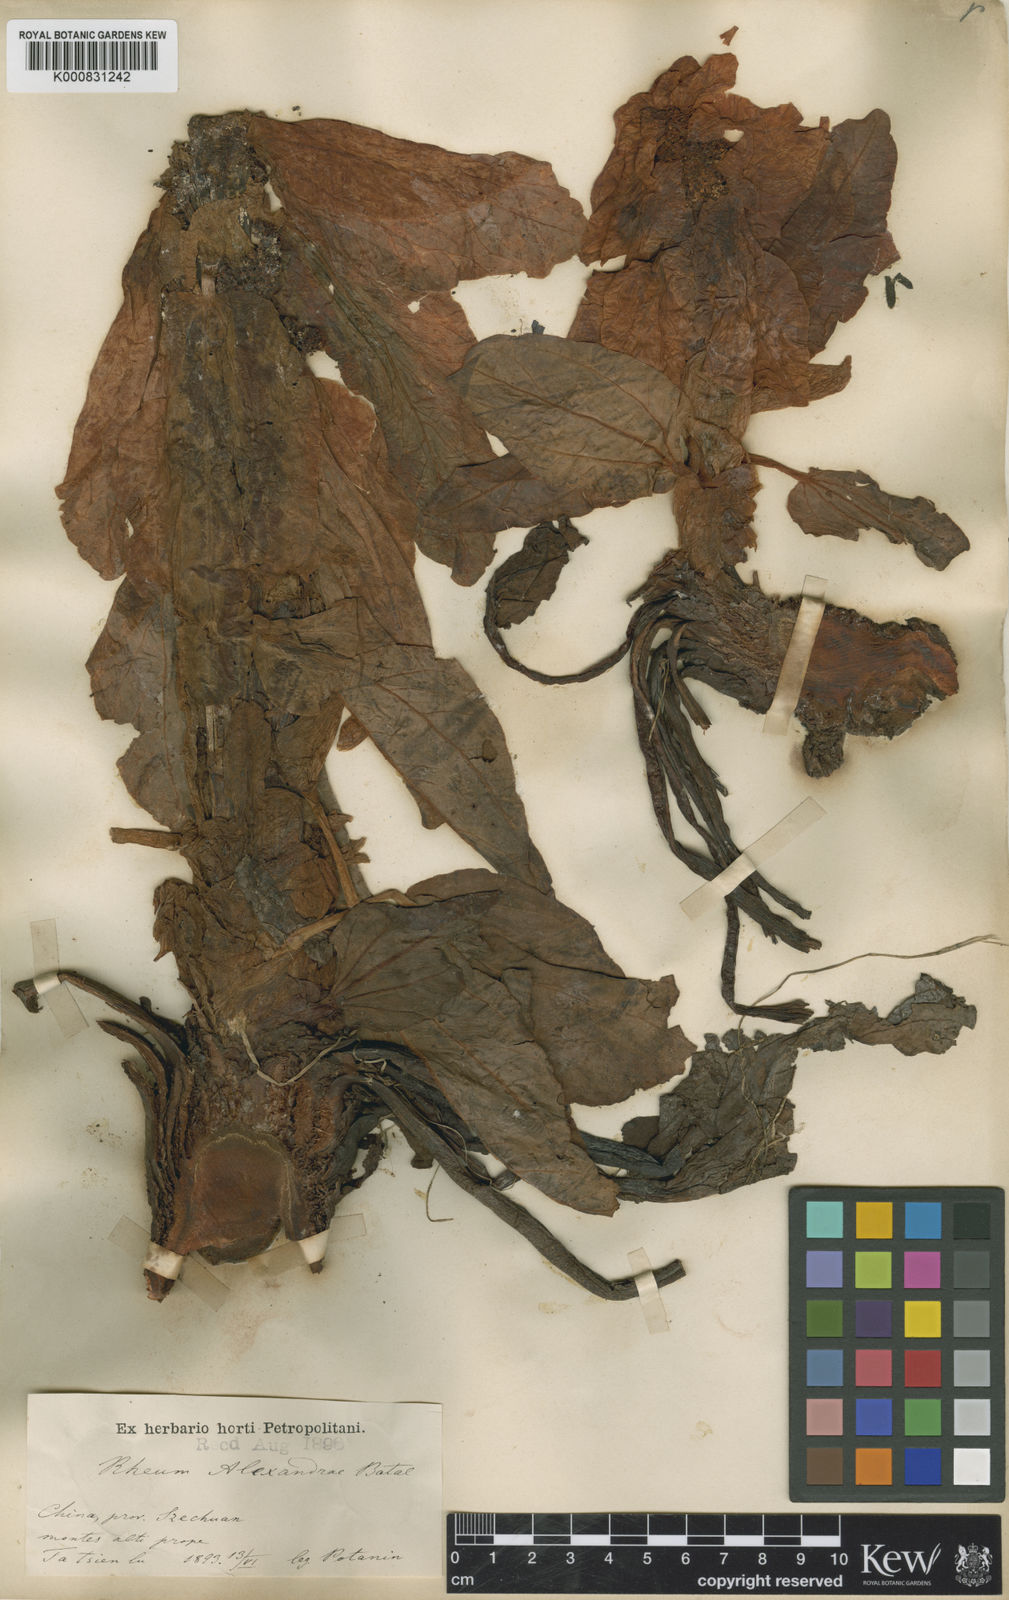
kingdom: Plantae
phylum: Tracheophyta
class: Magnoliopsida
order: Caryophyllales
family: Polygonaceae
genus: Rheum
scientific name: Rheum alexandrae
